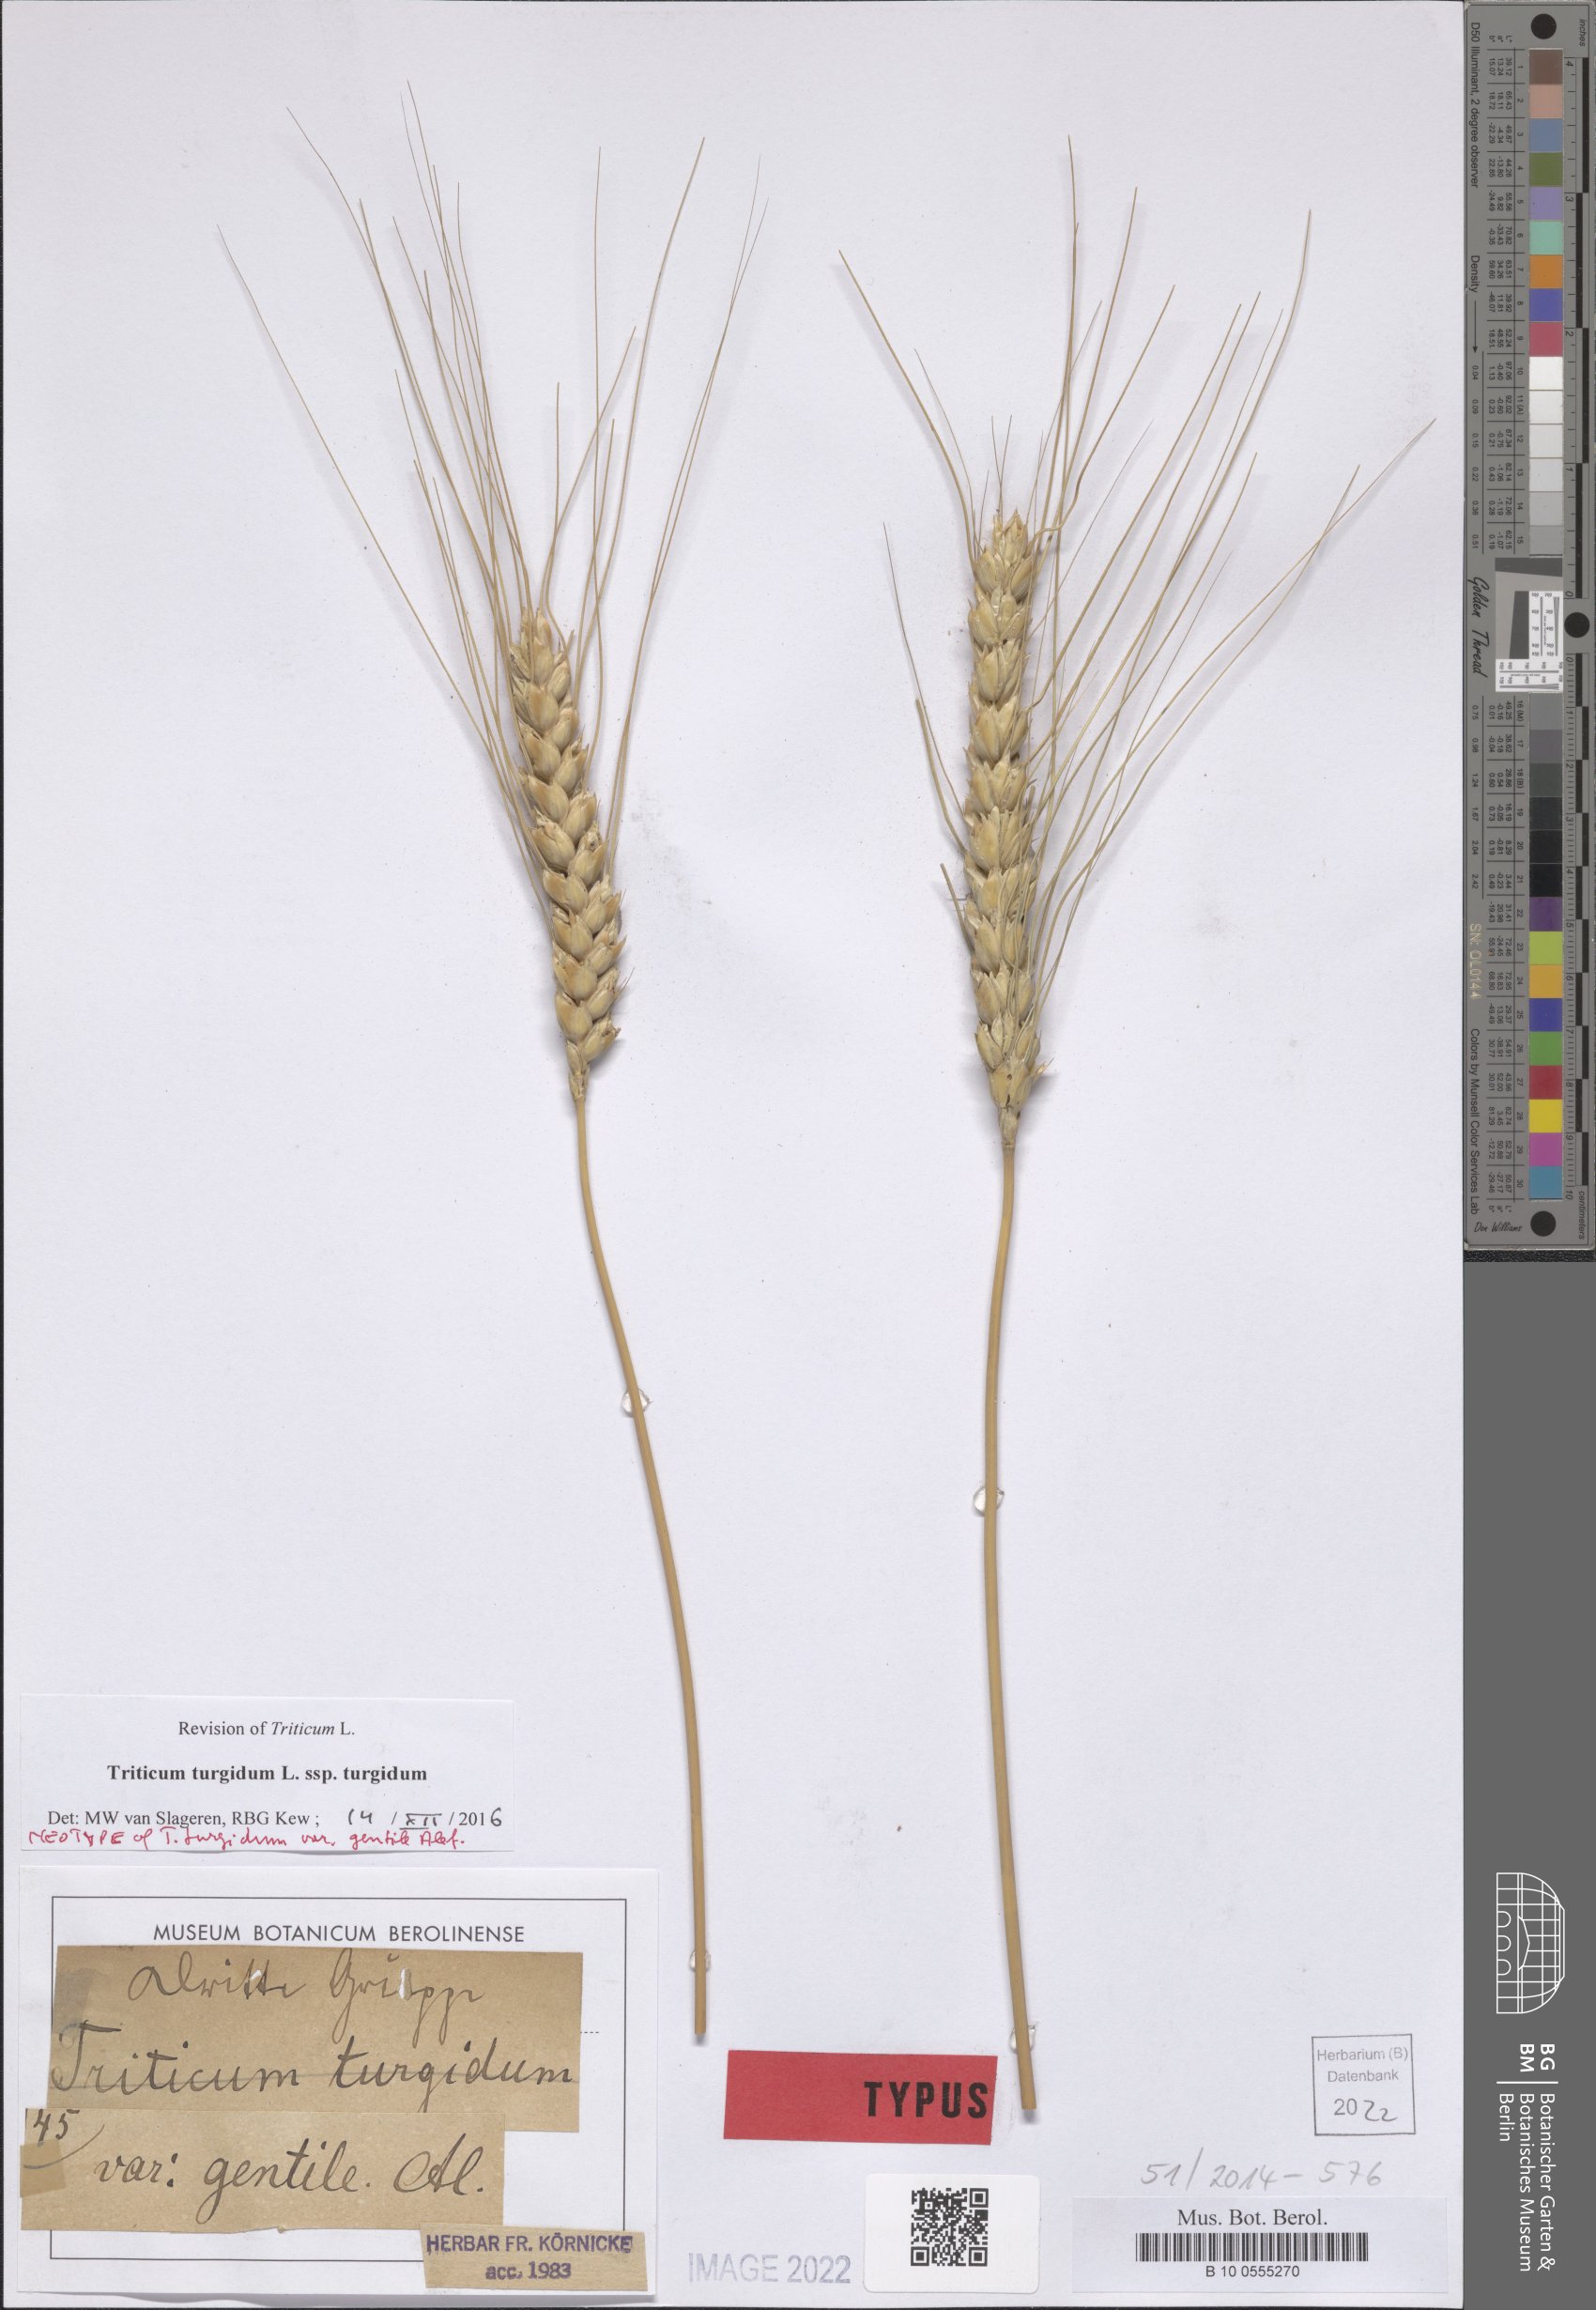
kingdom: Plantae
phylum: Tracheophyta
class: Liliopsida
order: Poales
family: Poaceae
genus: Triticum
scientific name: Triticum turgidum
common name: Rivet wheat
